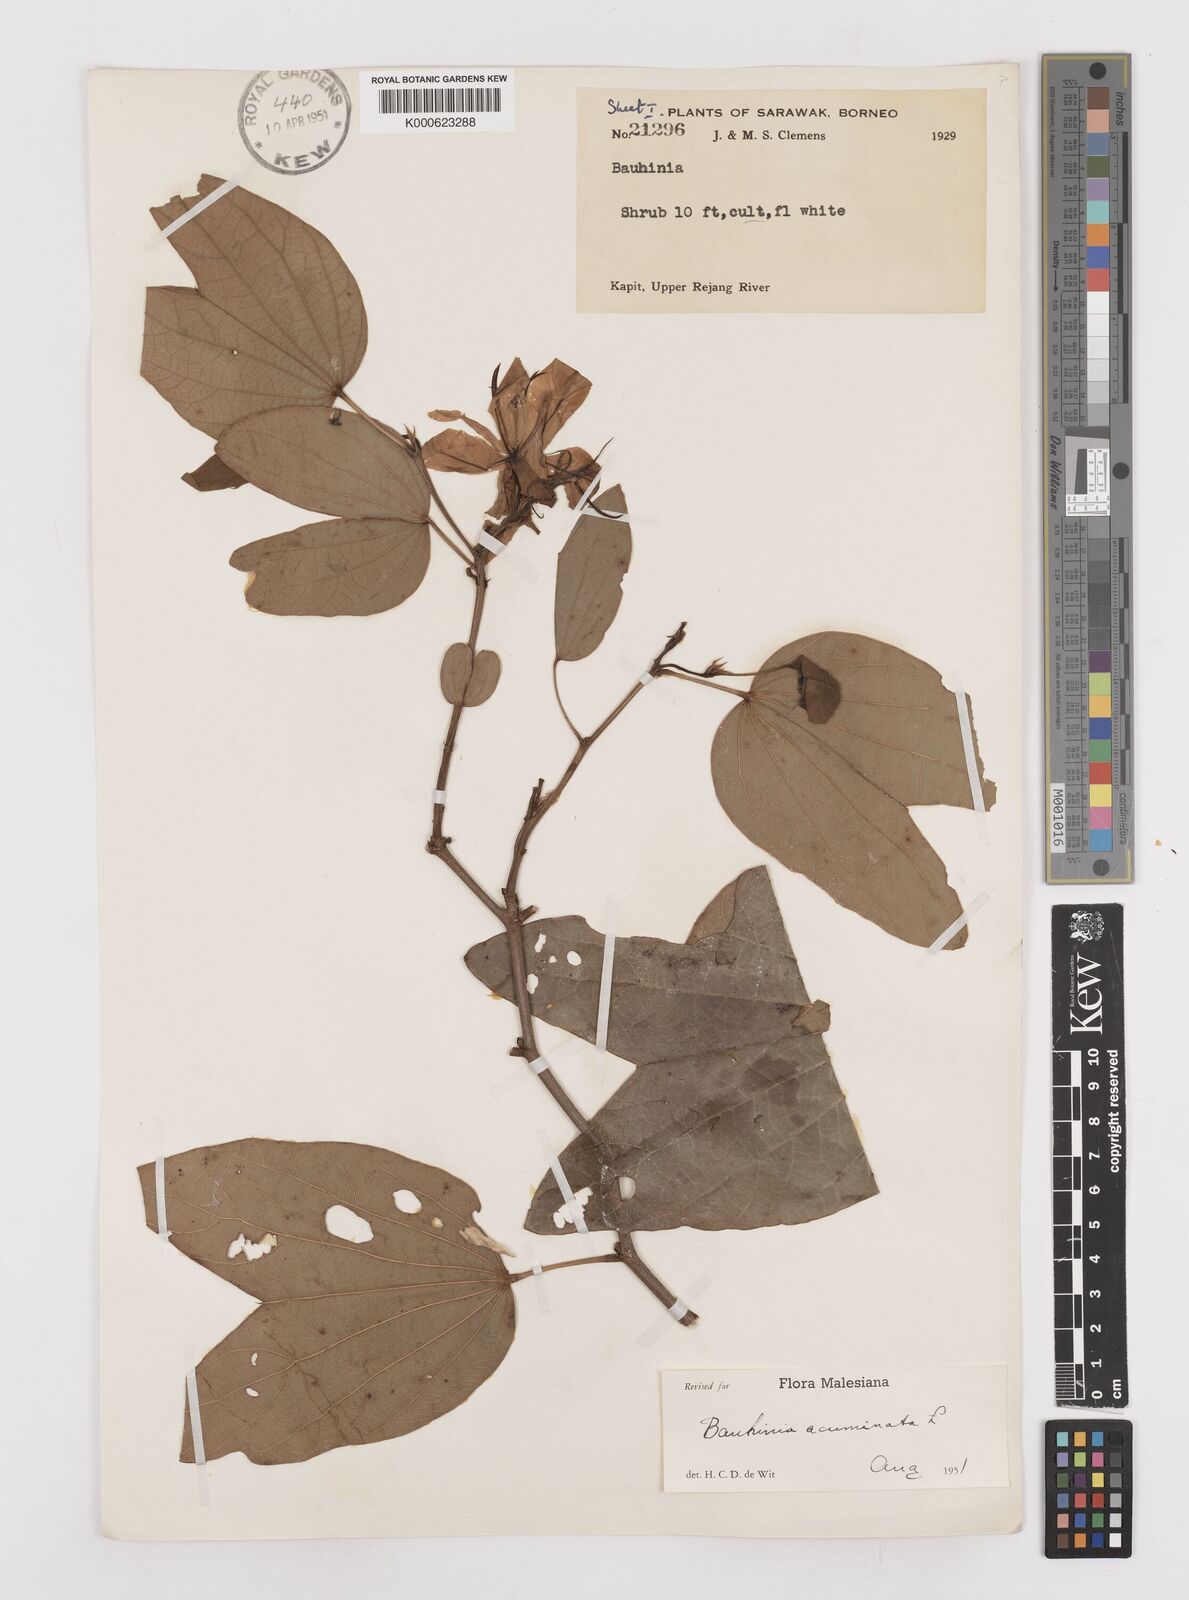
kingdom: Plantae
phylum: Tracheophyta
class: Magnoliopsida
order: Fabales
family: Fabaceae
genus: Bauhinia
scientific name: Bauhinia acuminata
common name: Dwarf white bauhinia
